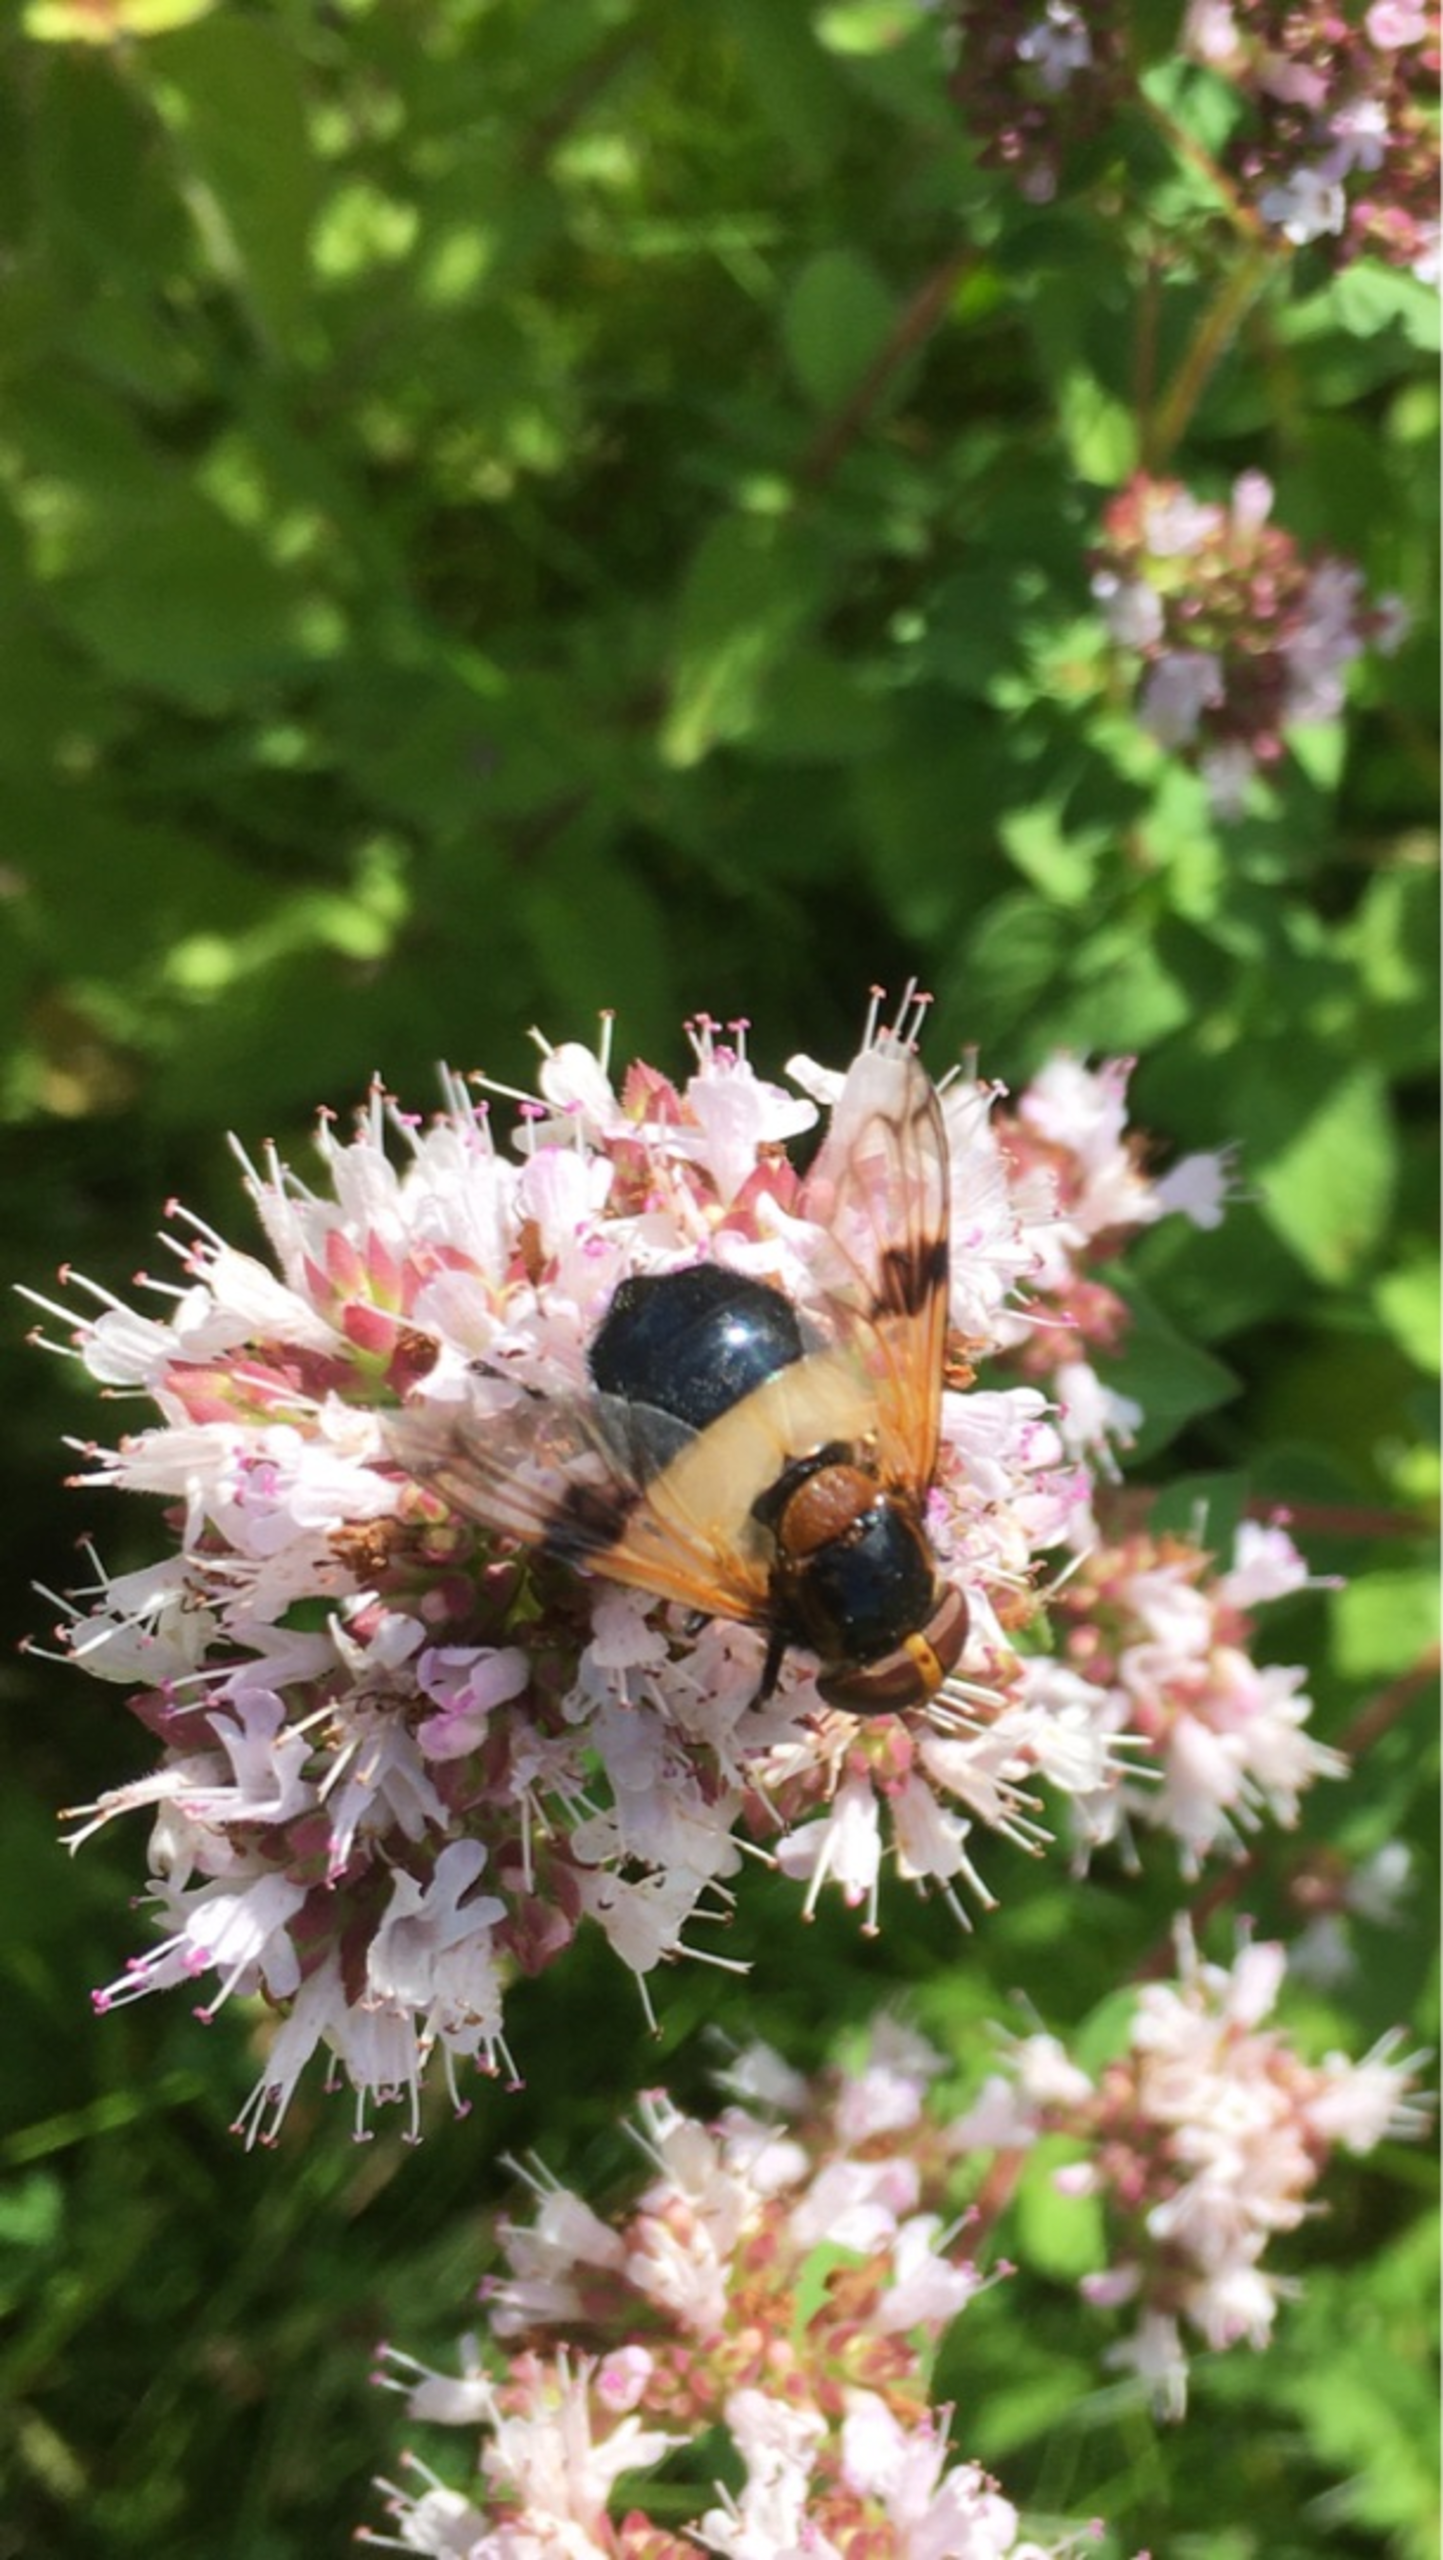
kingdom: Animalia
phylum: Arthropoda
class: Insecta
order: Diptera
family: Syrphidae
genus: Volucella
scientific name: Volucella pellucens
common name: Hvidbåndet humlesvirreflue
